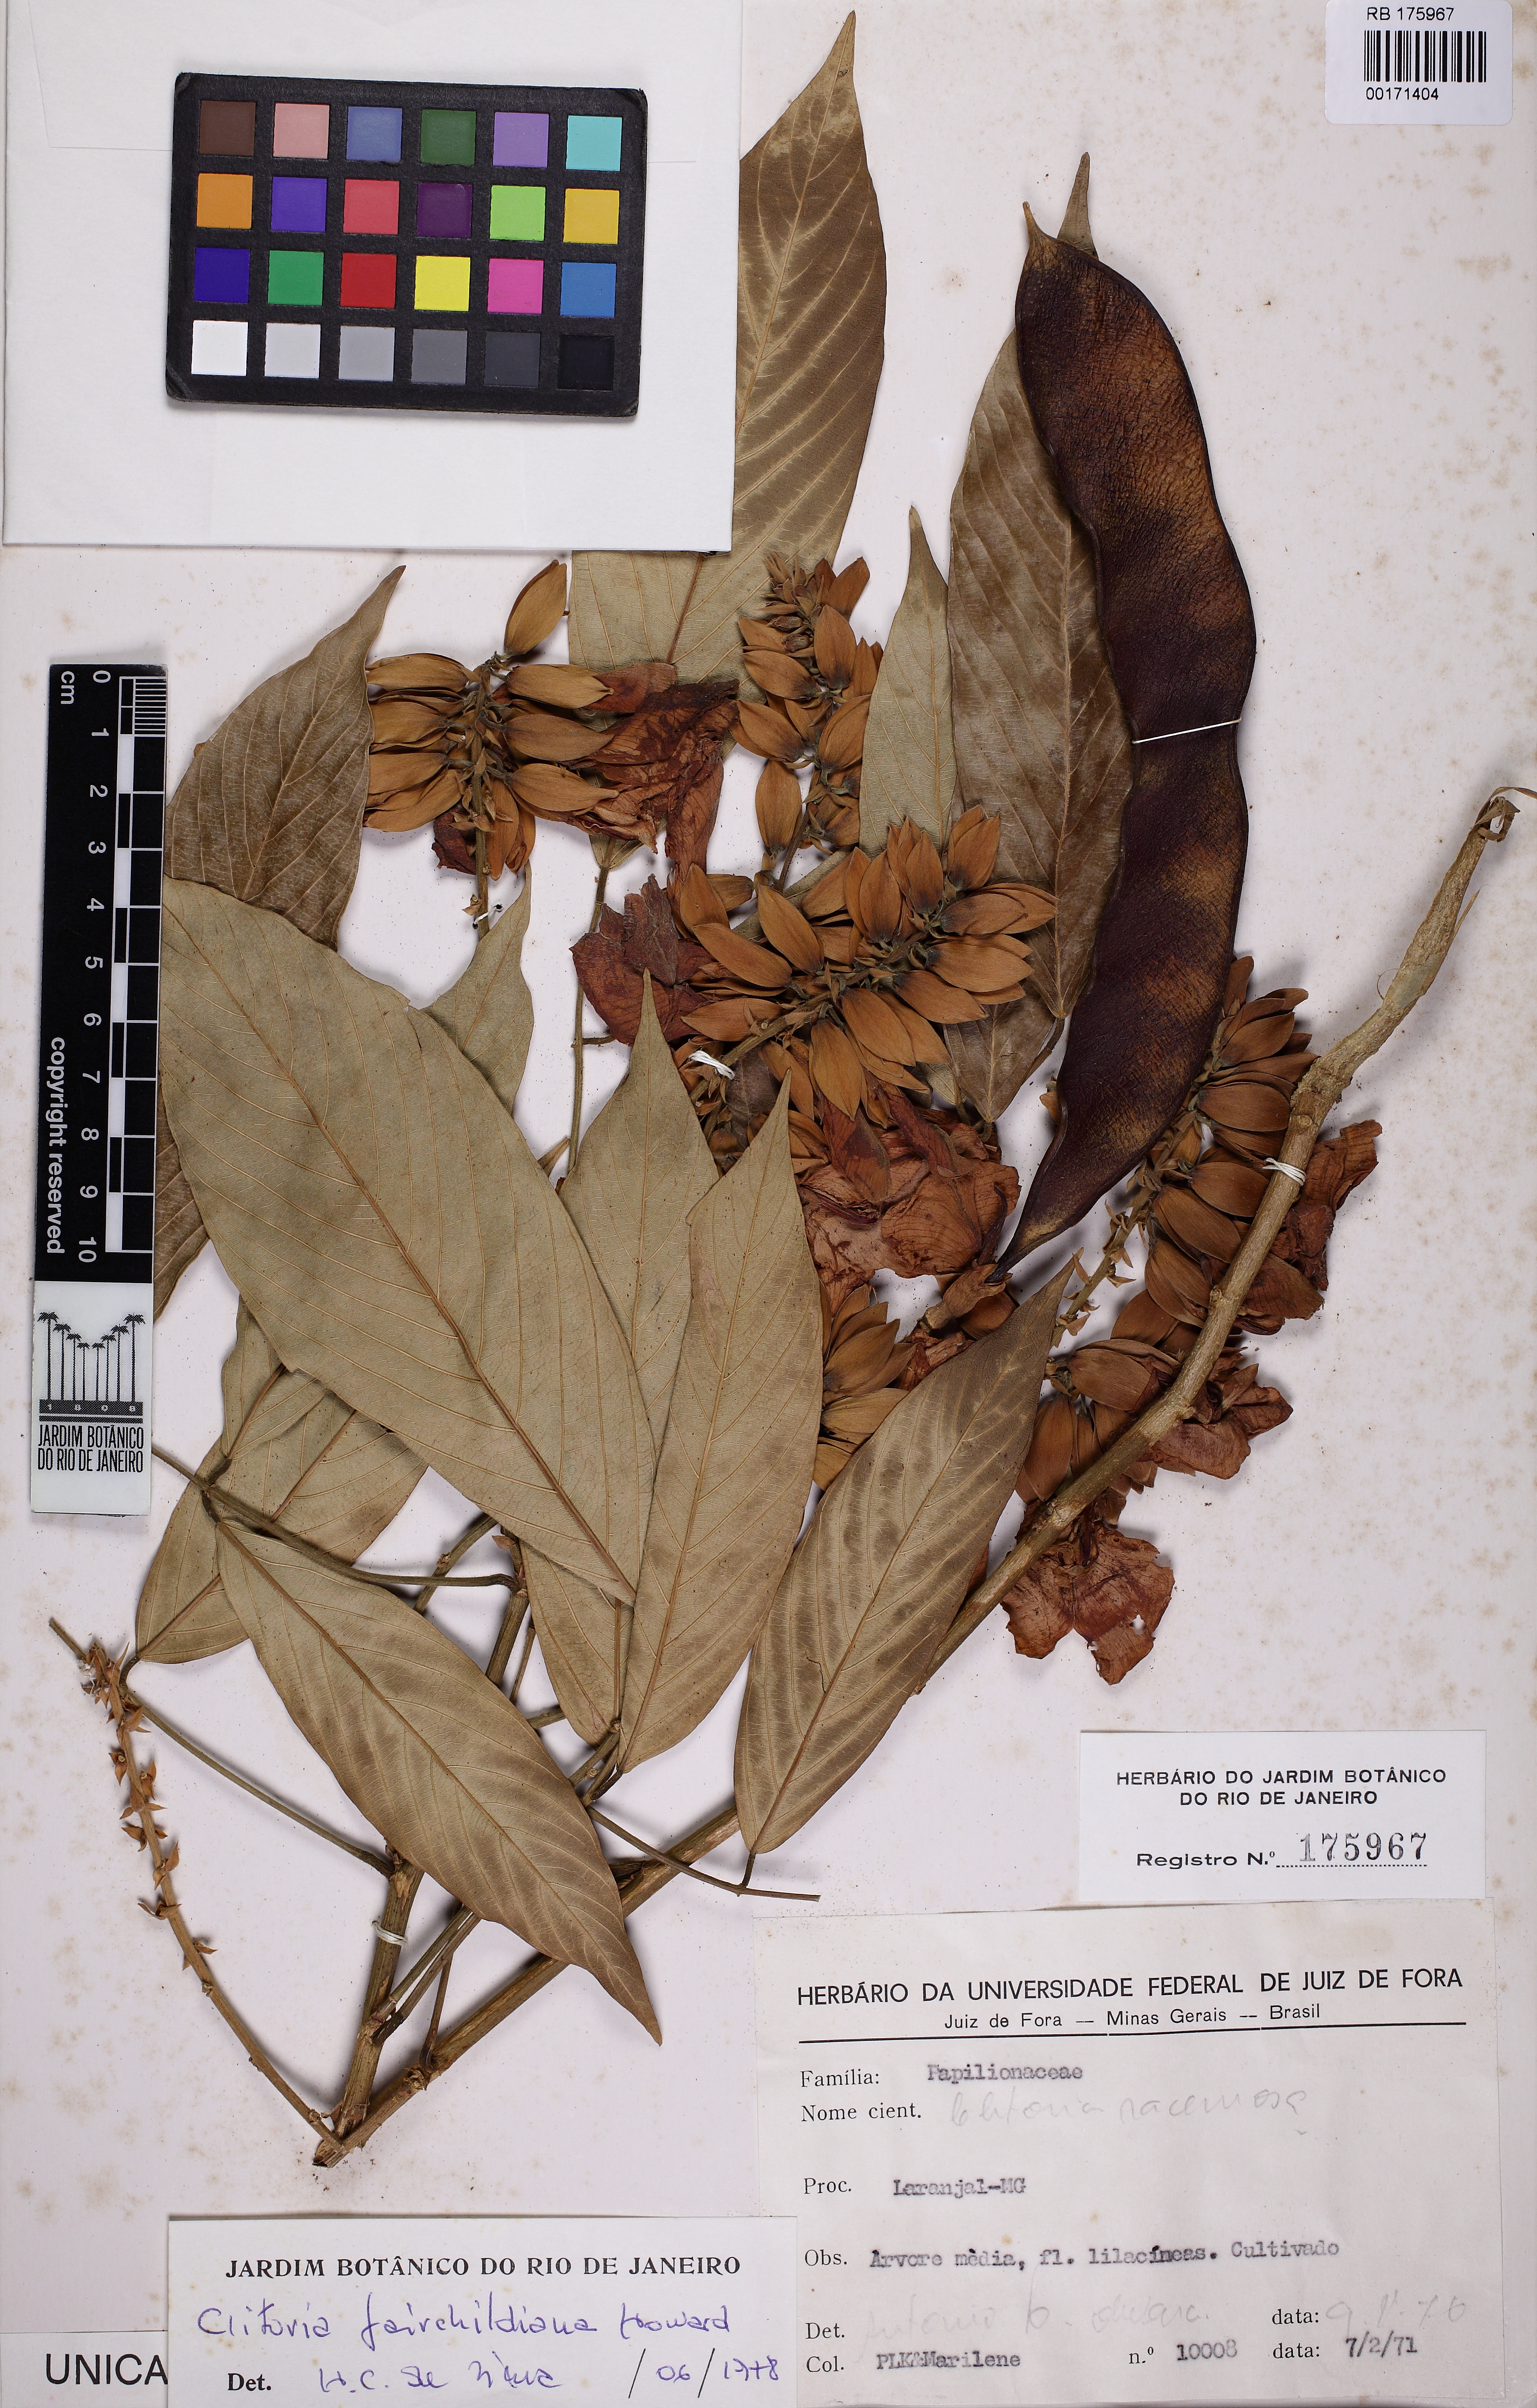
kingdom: Plantae
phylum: Tracheophyta
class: Magnoliopsida
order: Fabales
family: Fabaceae
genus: Clitoria
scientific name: Clitoria fairchildiana
